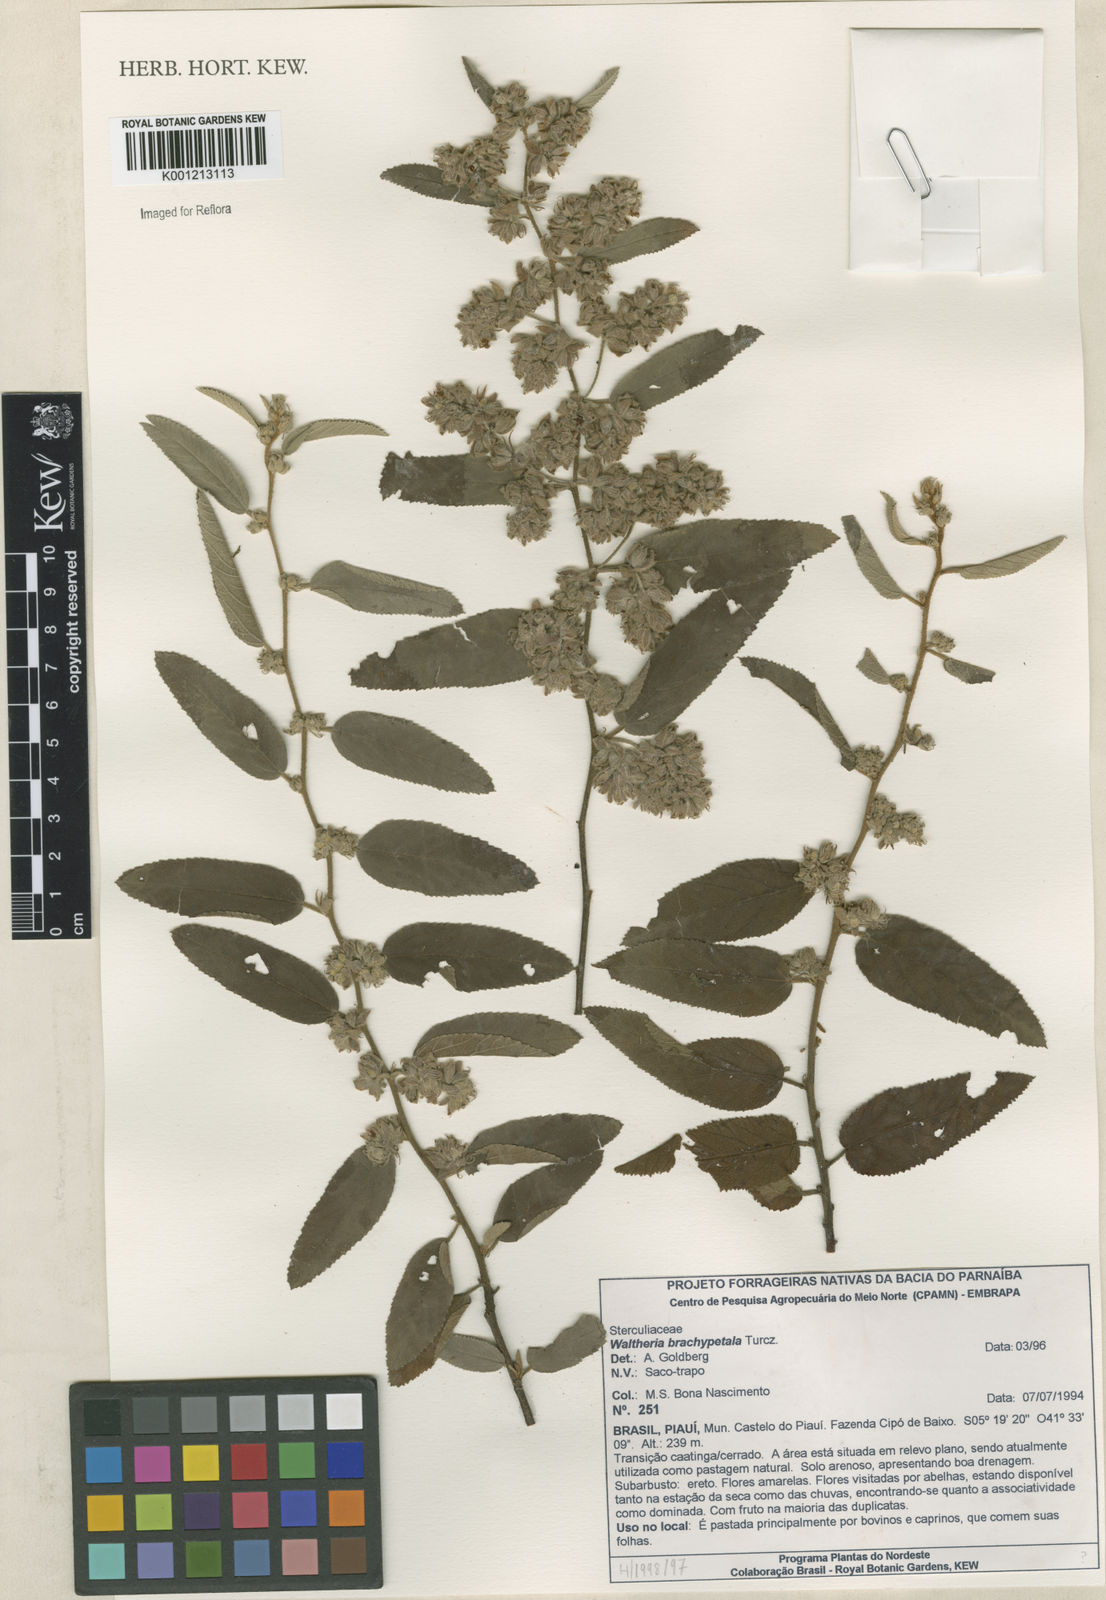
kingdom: Plantae
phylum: Tracheophyta
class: Magnoliopsida
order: Malvales
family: Malvaceae
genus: Waltheria
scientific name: Waltheria ferruginea
